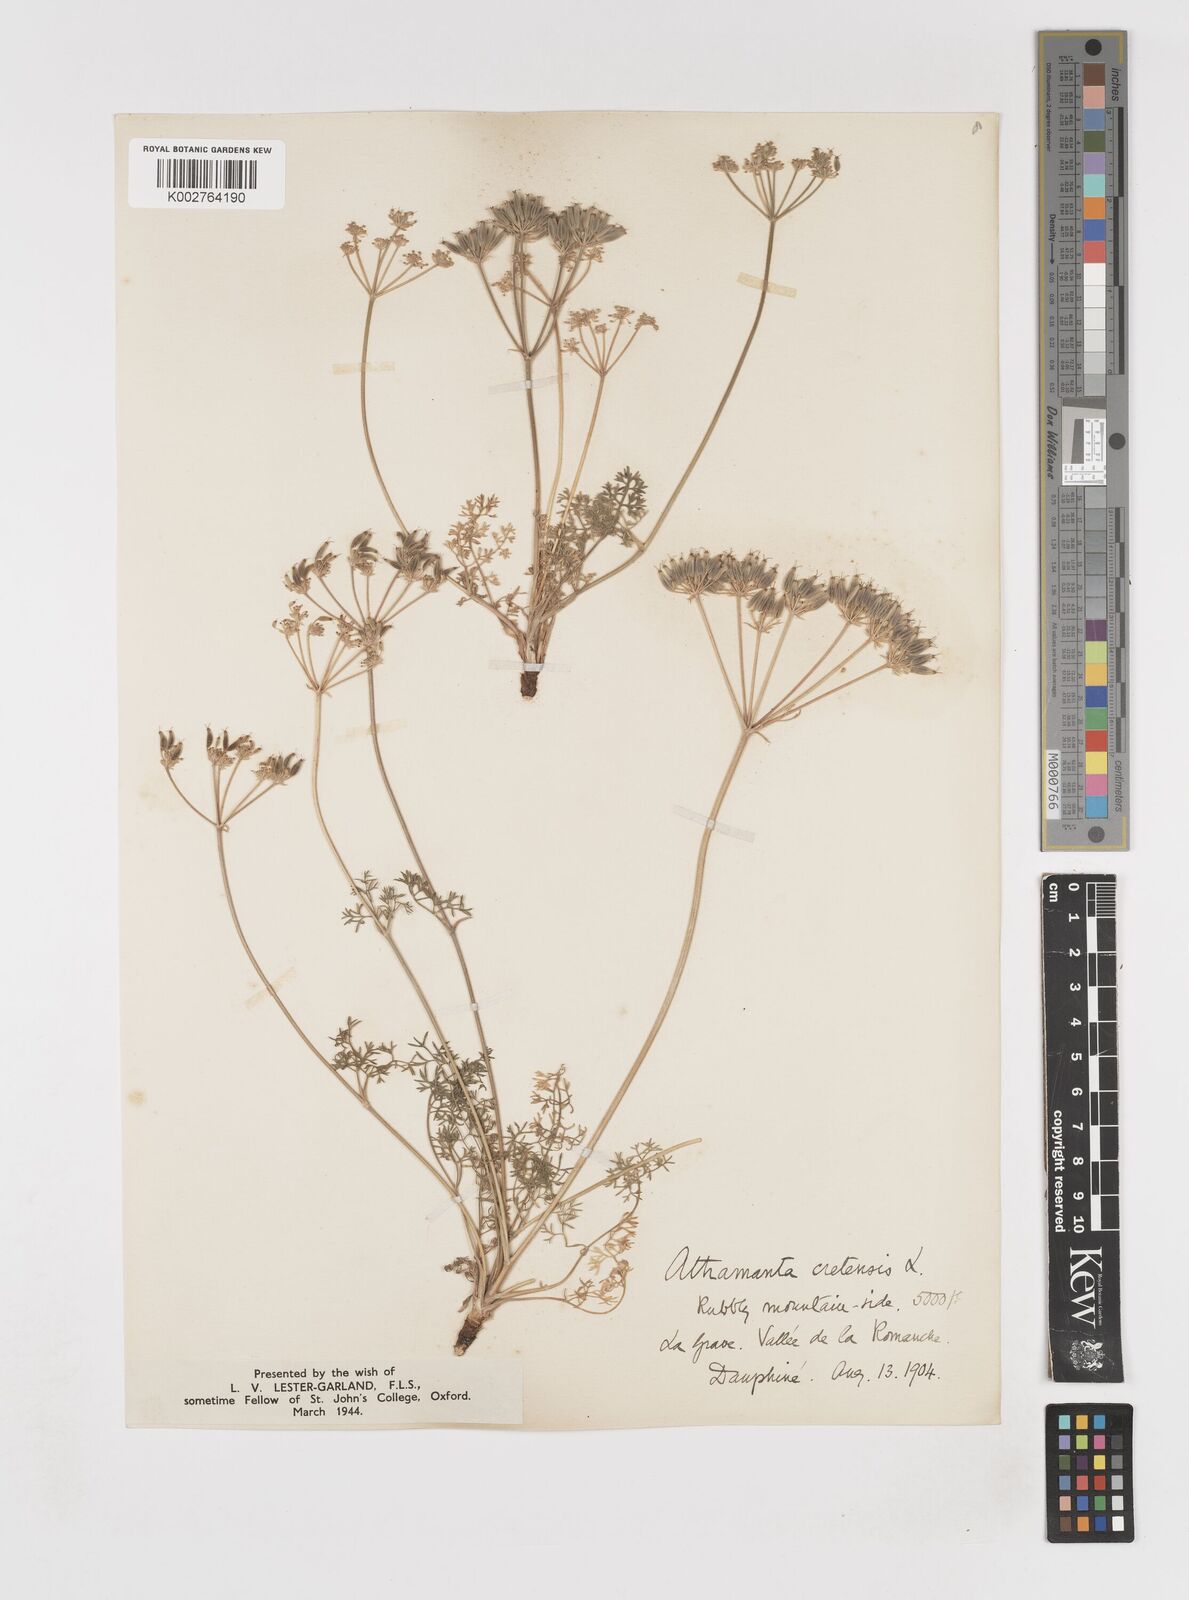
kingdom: Plantae
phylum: Tracheophyta
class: Magnoliopsida
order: Apiales
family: Apiaceae
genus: Athamanta
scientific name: Athamanta cretensis
